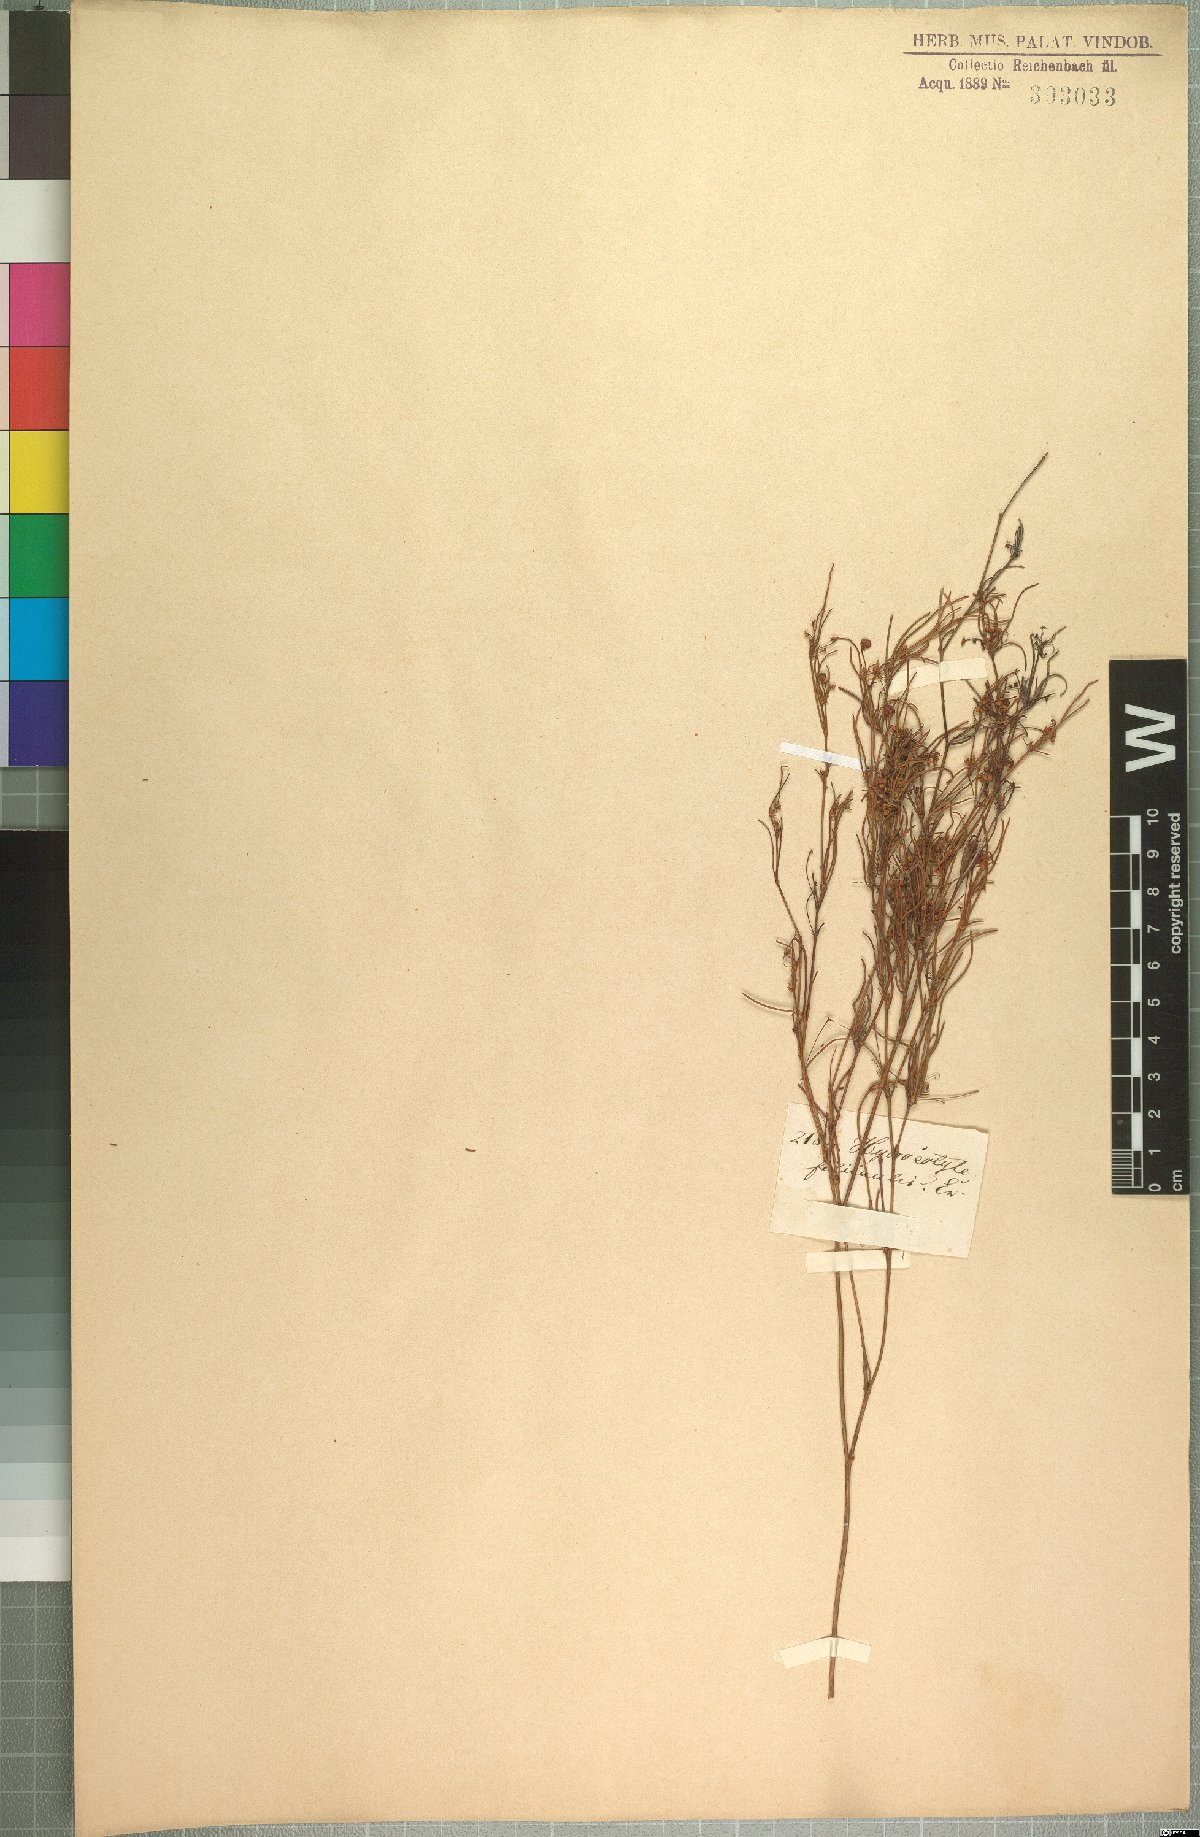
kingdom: Plantae
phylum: Tracheophyta
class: Magnoliopsida
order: Apiales
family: Apiaceae
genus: Centella
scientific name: Centella virgata
